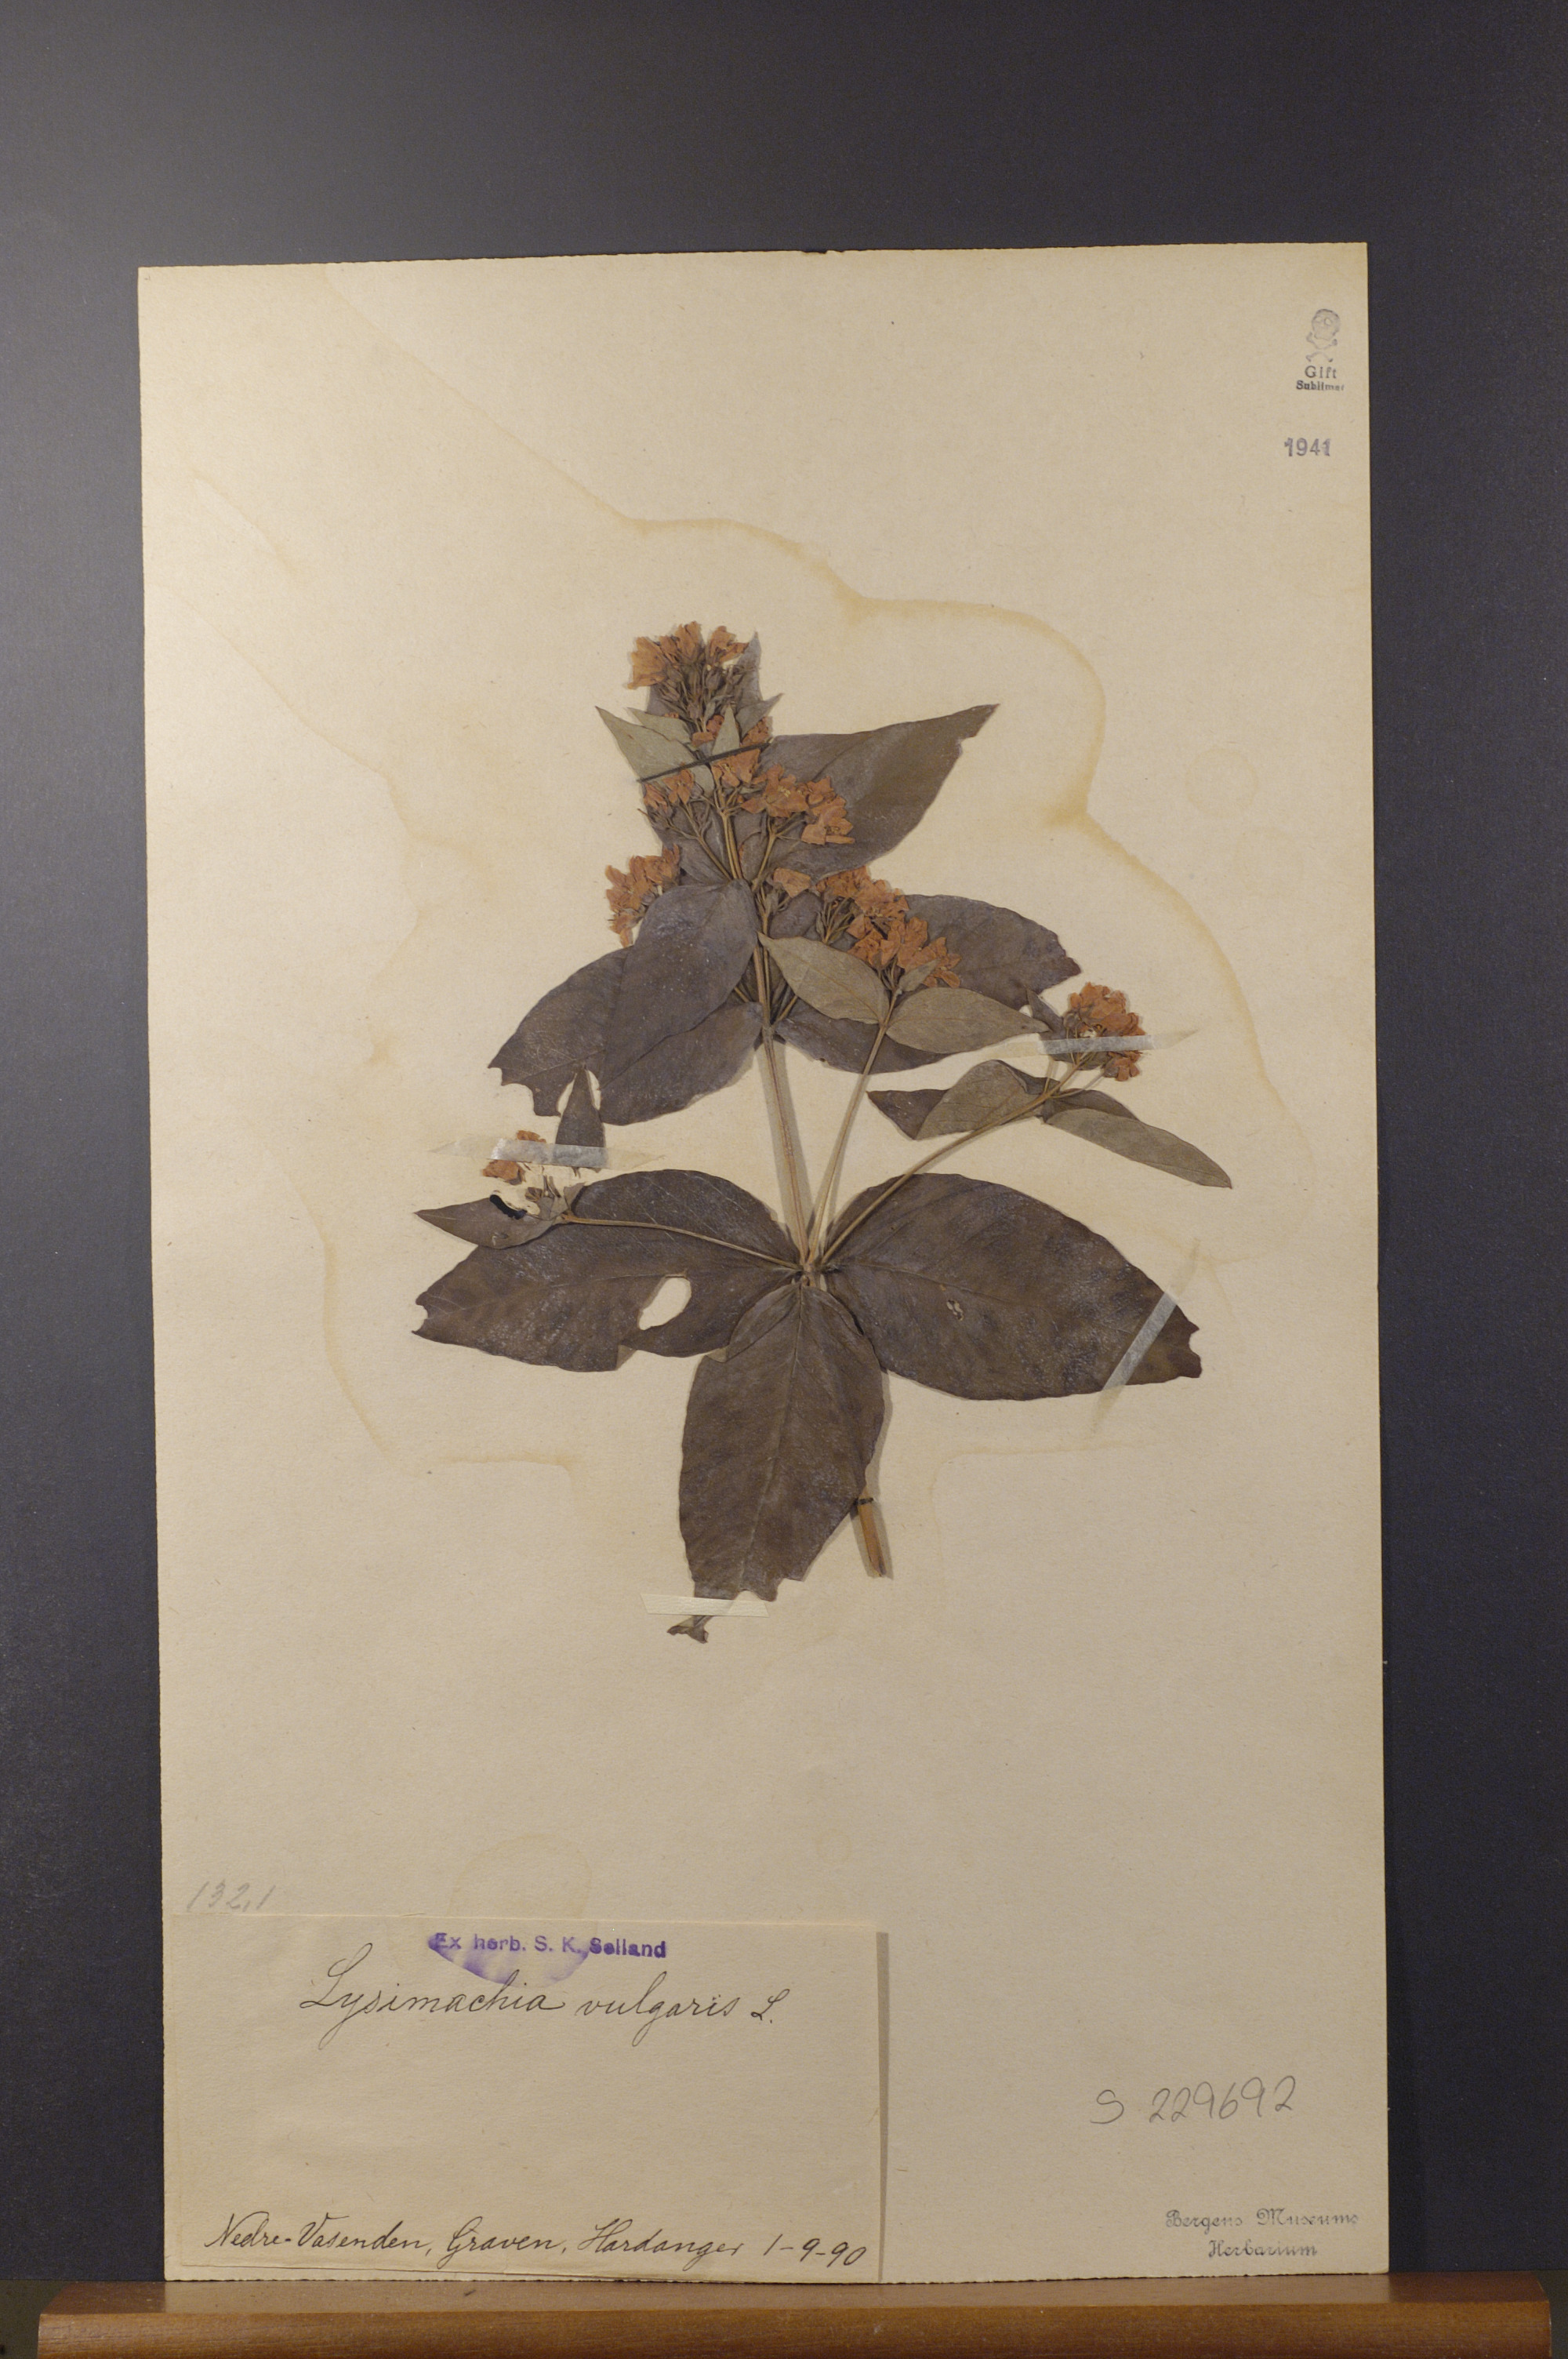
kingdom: Plantae
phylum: Tracheophyta
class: Magnoliopsida
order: Ericales
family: Primulaceae
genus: Lysimachia
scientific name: Lysimachia vulgaris
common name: Yellow loosestrife
